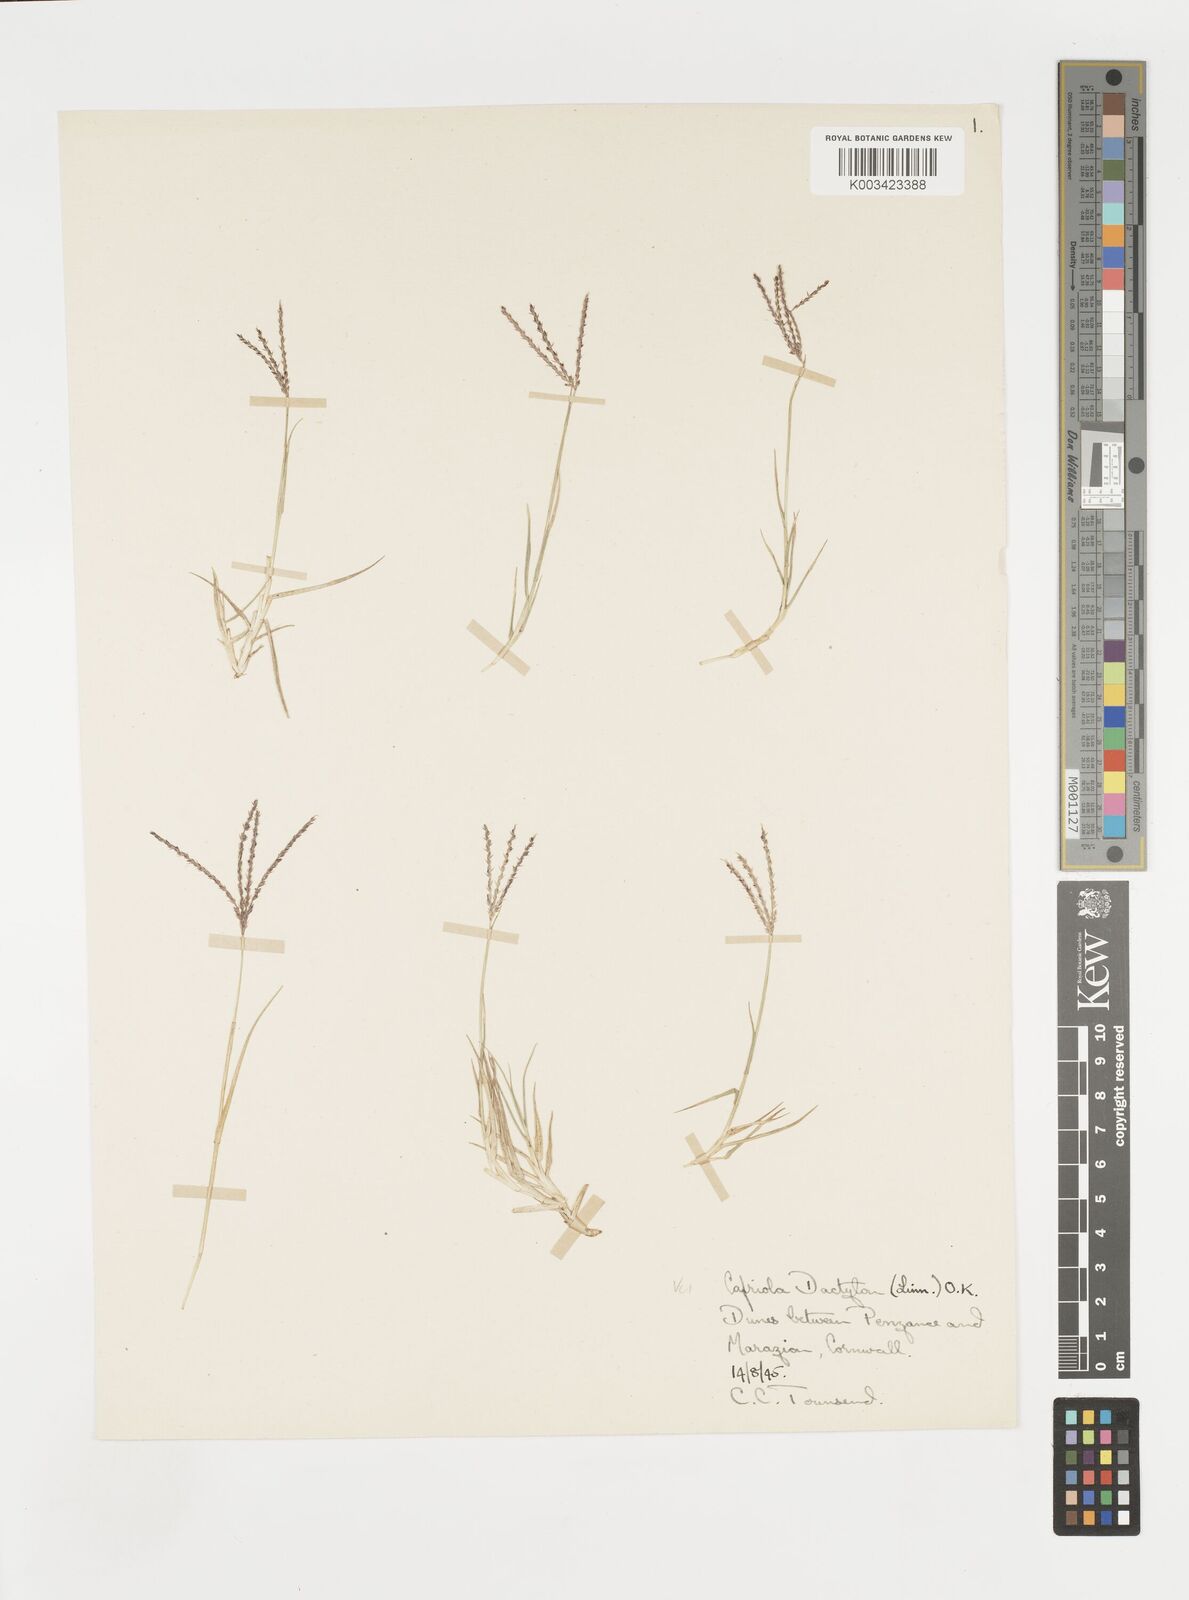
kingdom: Plantae
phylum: Tracheophyta
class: Liliopsida
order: Poales
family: Poaceae
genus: Cynodon
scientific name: Cynodon dactylon
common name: Bermuda grass
